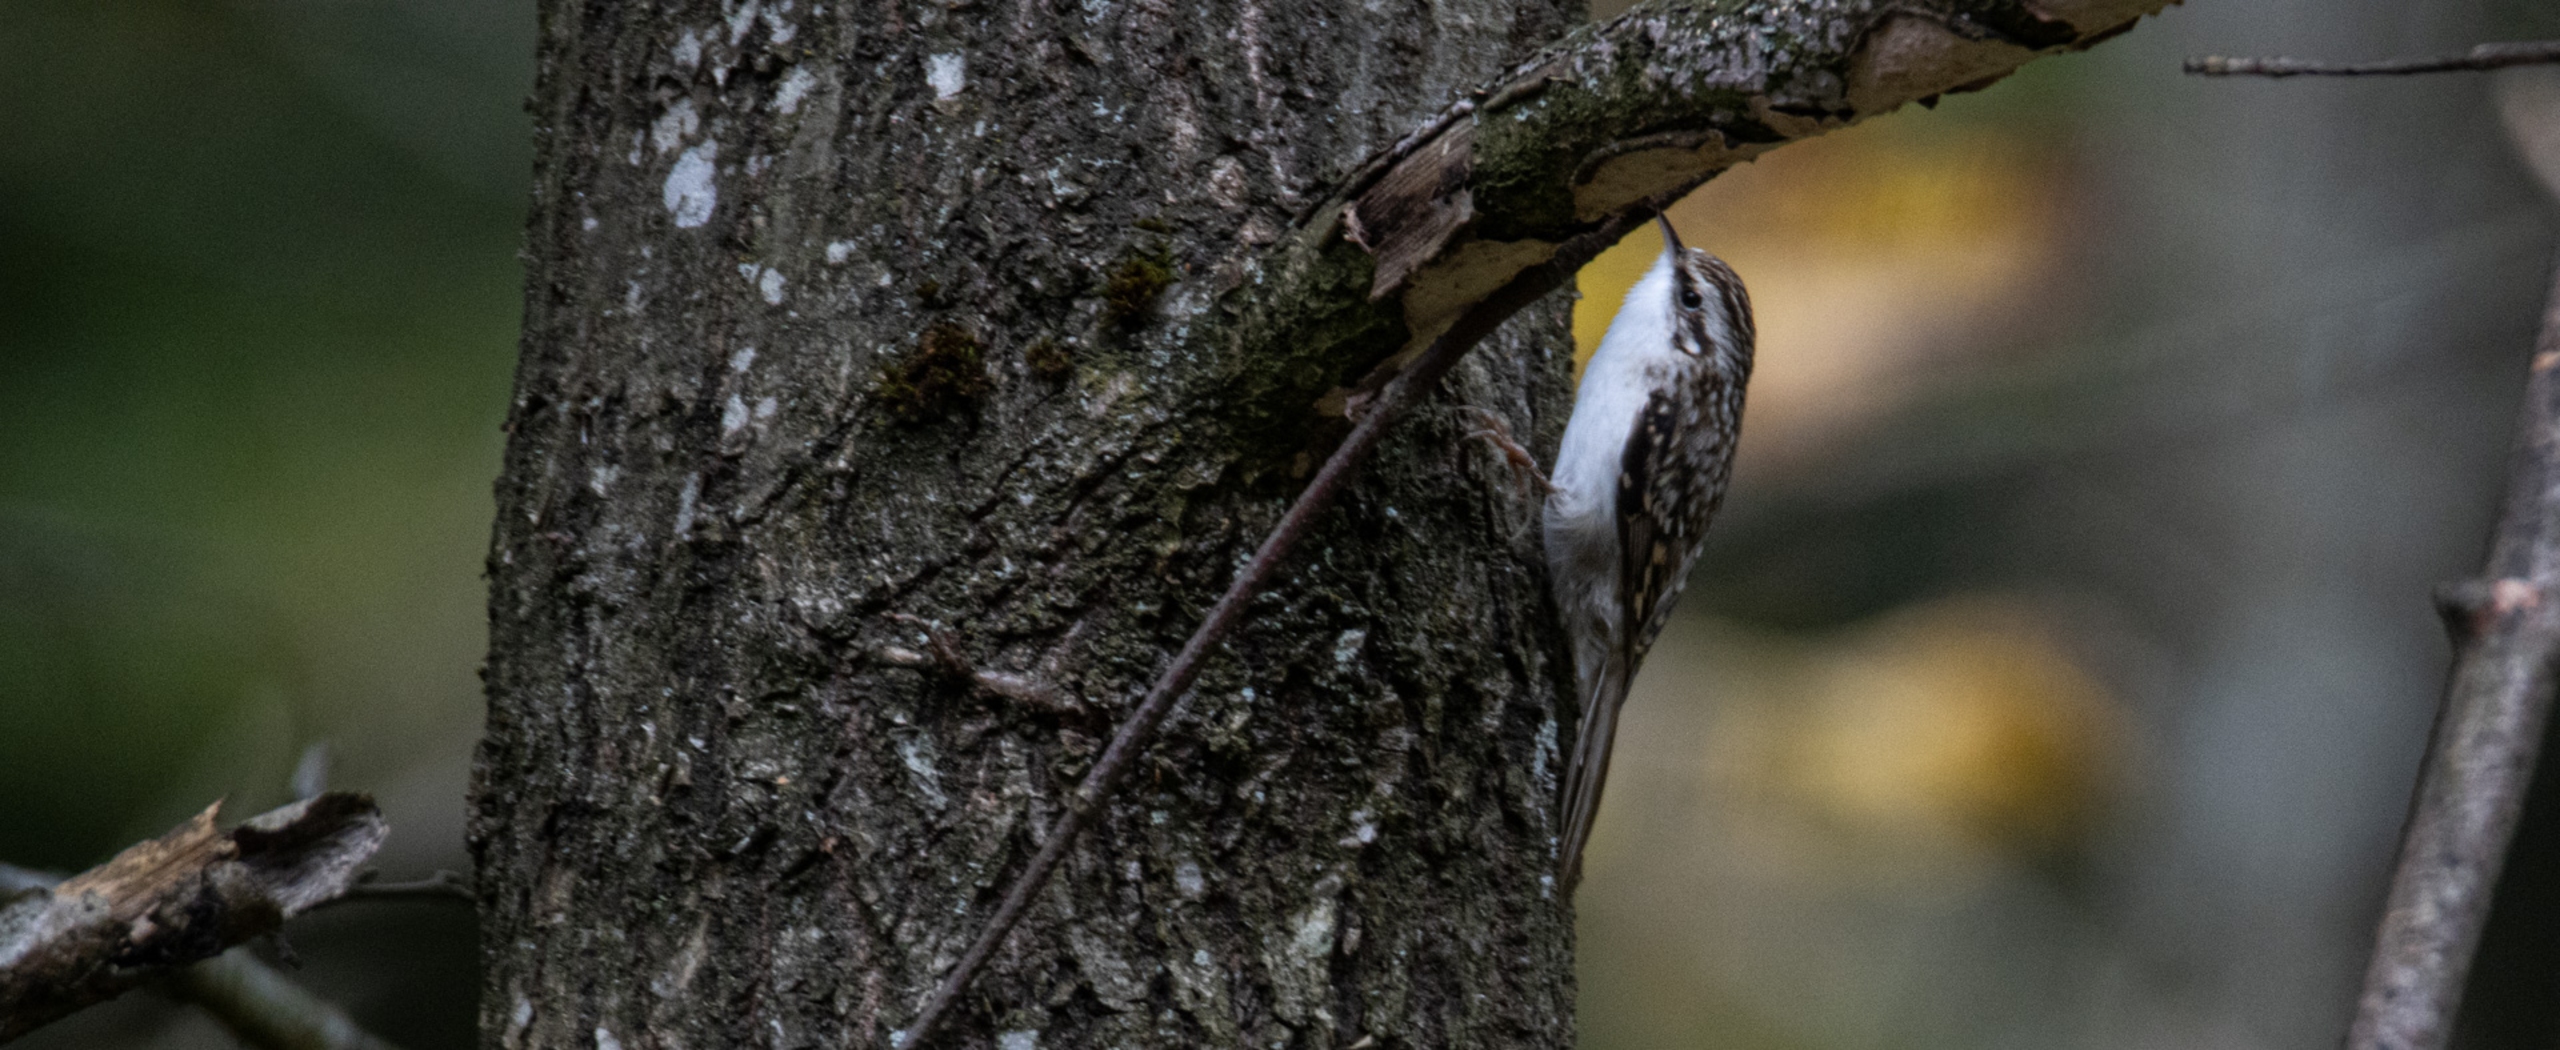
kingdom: Animalia
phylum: Chordata
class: Aves
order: Passeriformes
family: Certhiidae
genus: Certhia
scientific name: Certhia familiaris
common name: Træløber
